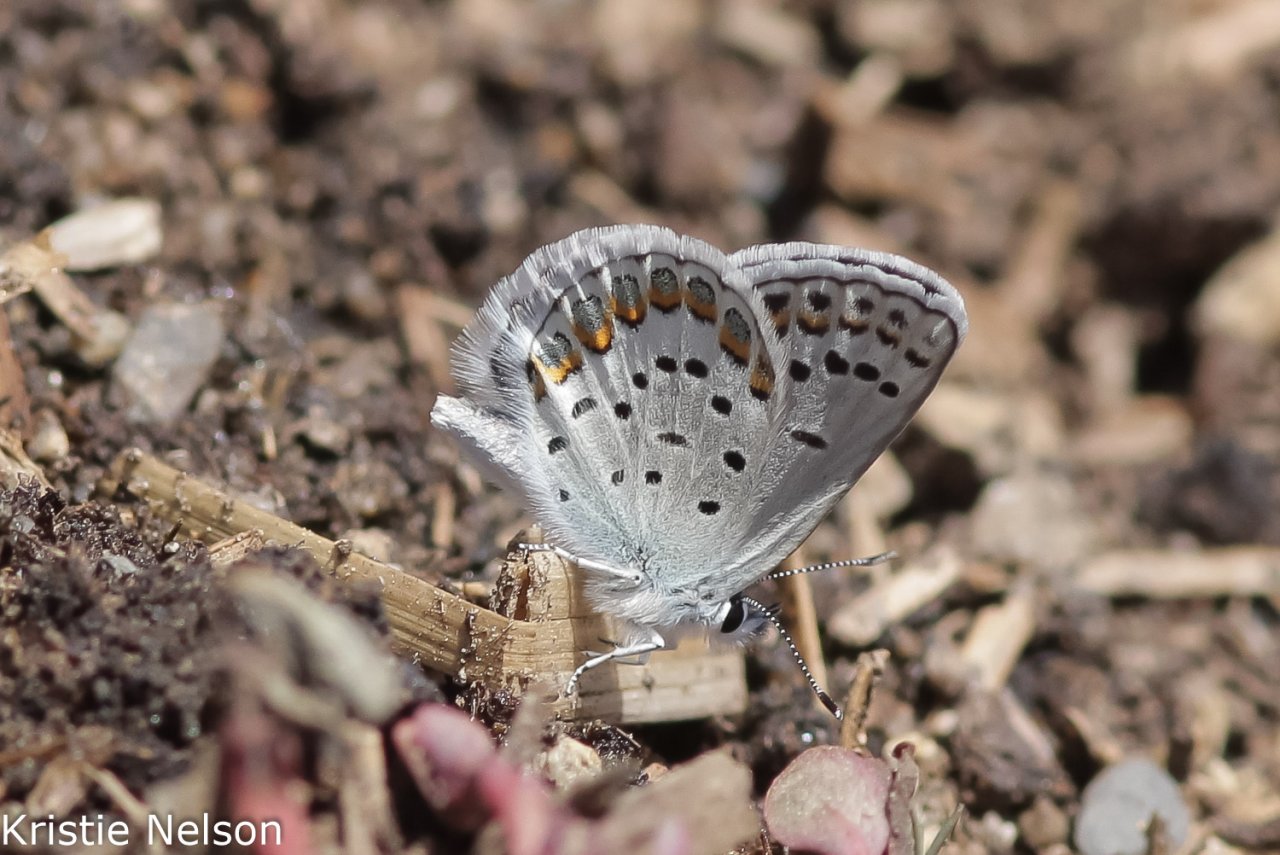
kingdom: Animalia
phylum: Arthropoda
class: Insecta
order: Lepidoptera
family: Lycaenidae
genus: Lycaeides
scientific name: Lycaeides melissa
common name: Melissa Blue
